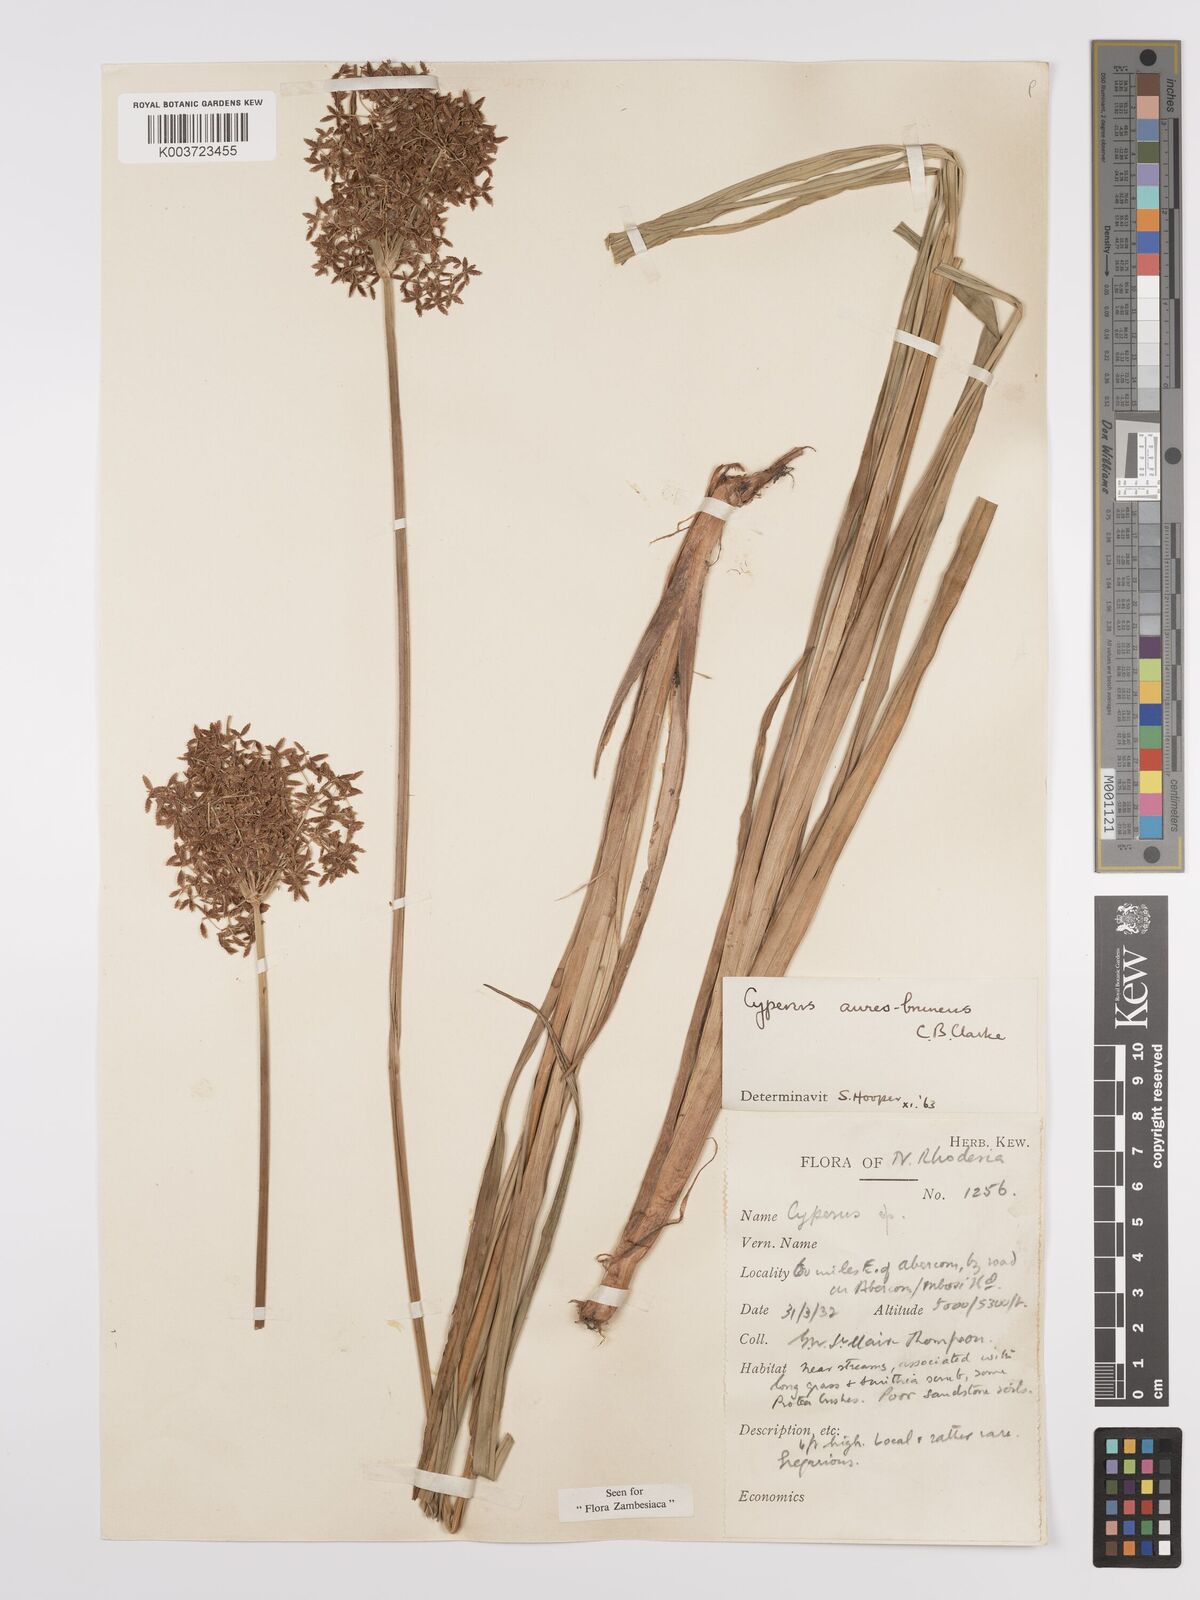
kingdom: Plantae
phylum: Tracheophyta
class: Liliopsida
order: Poales
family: Cyperaceae
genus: Cyperus
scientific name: Cyperus aureobrunneus
